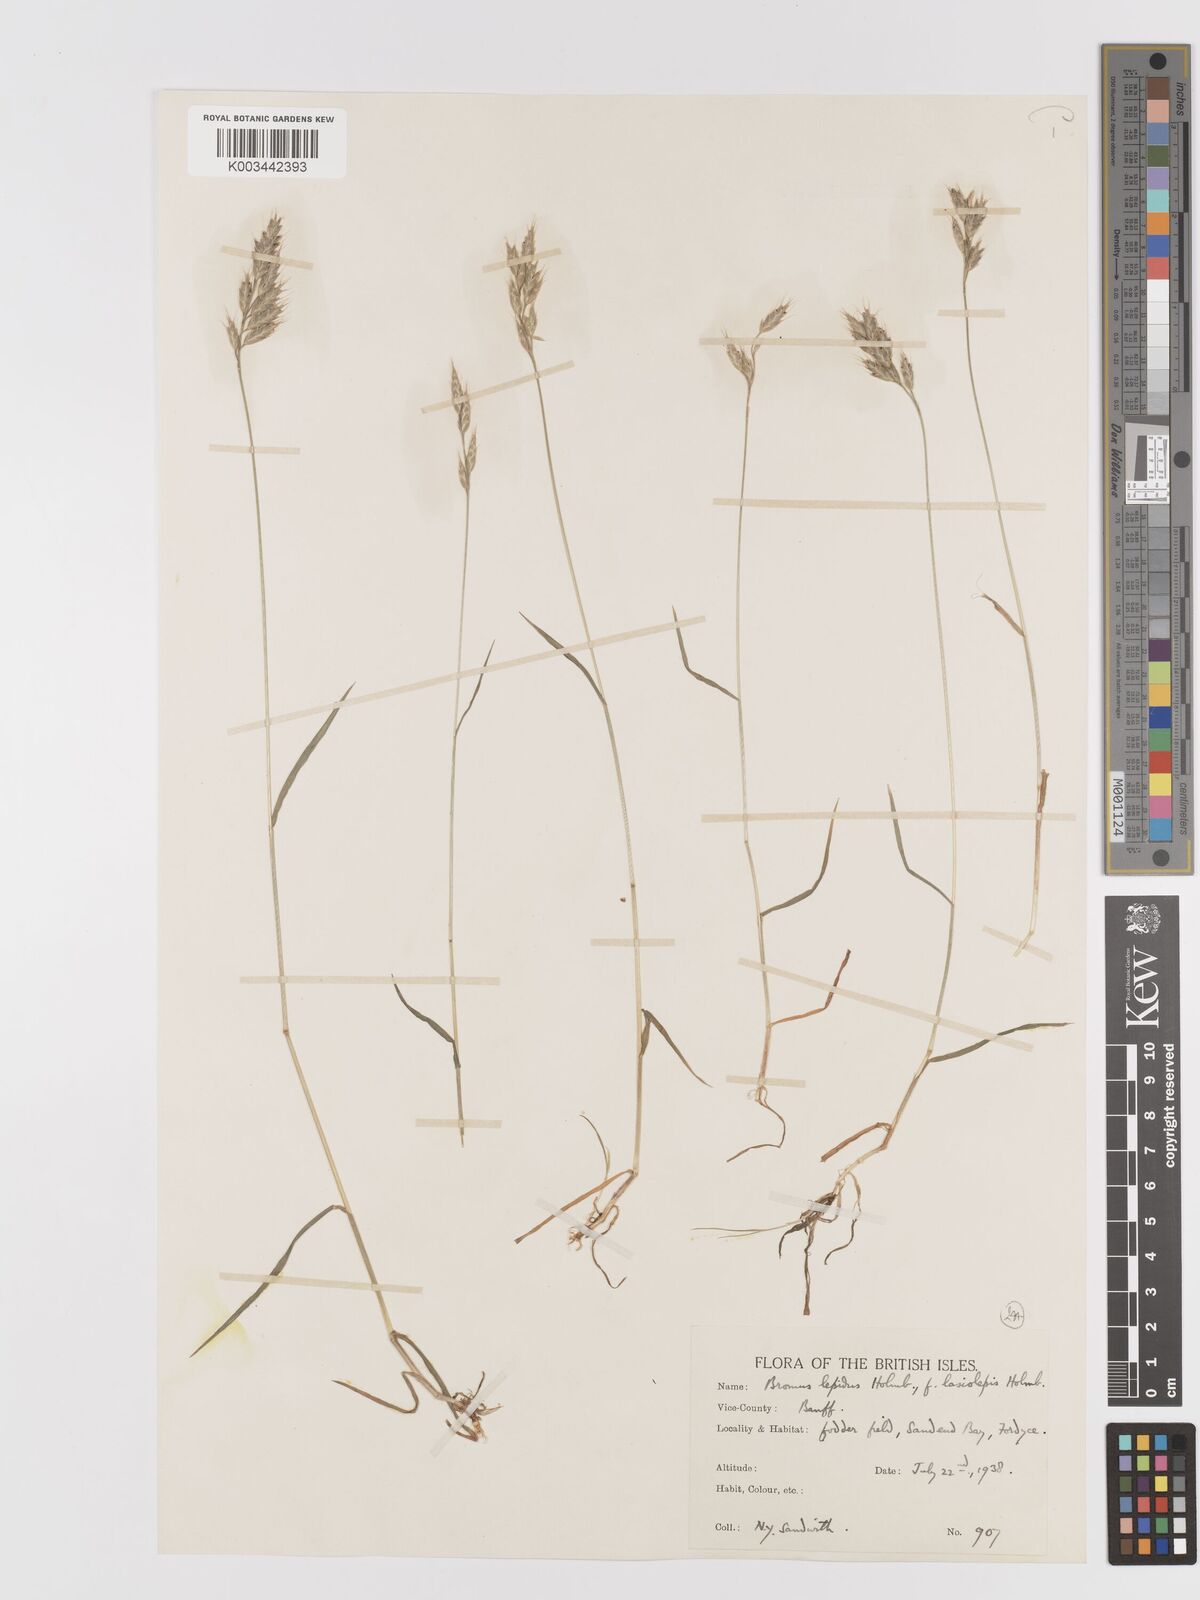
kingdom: Plantae
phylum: Tracheophyta
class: Liliopsida
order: Poales
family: Poaceae
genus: Bromus
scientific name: Bromus lepidus
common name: Slender soft-brome
